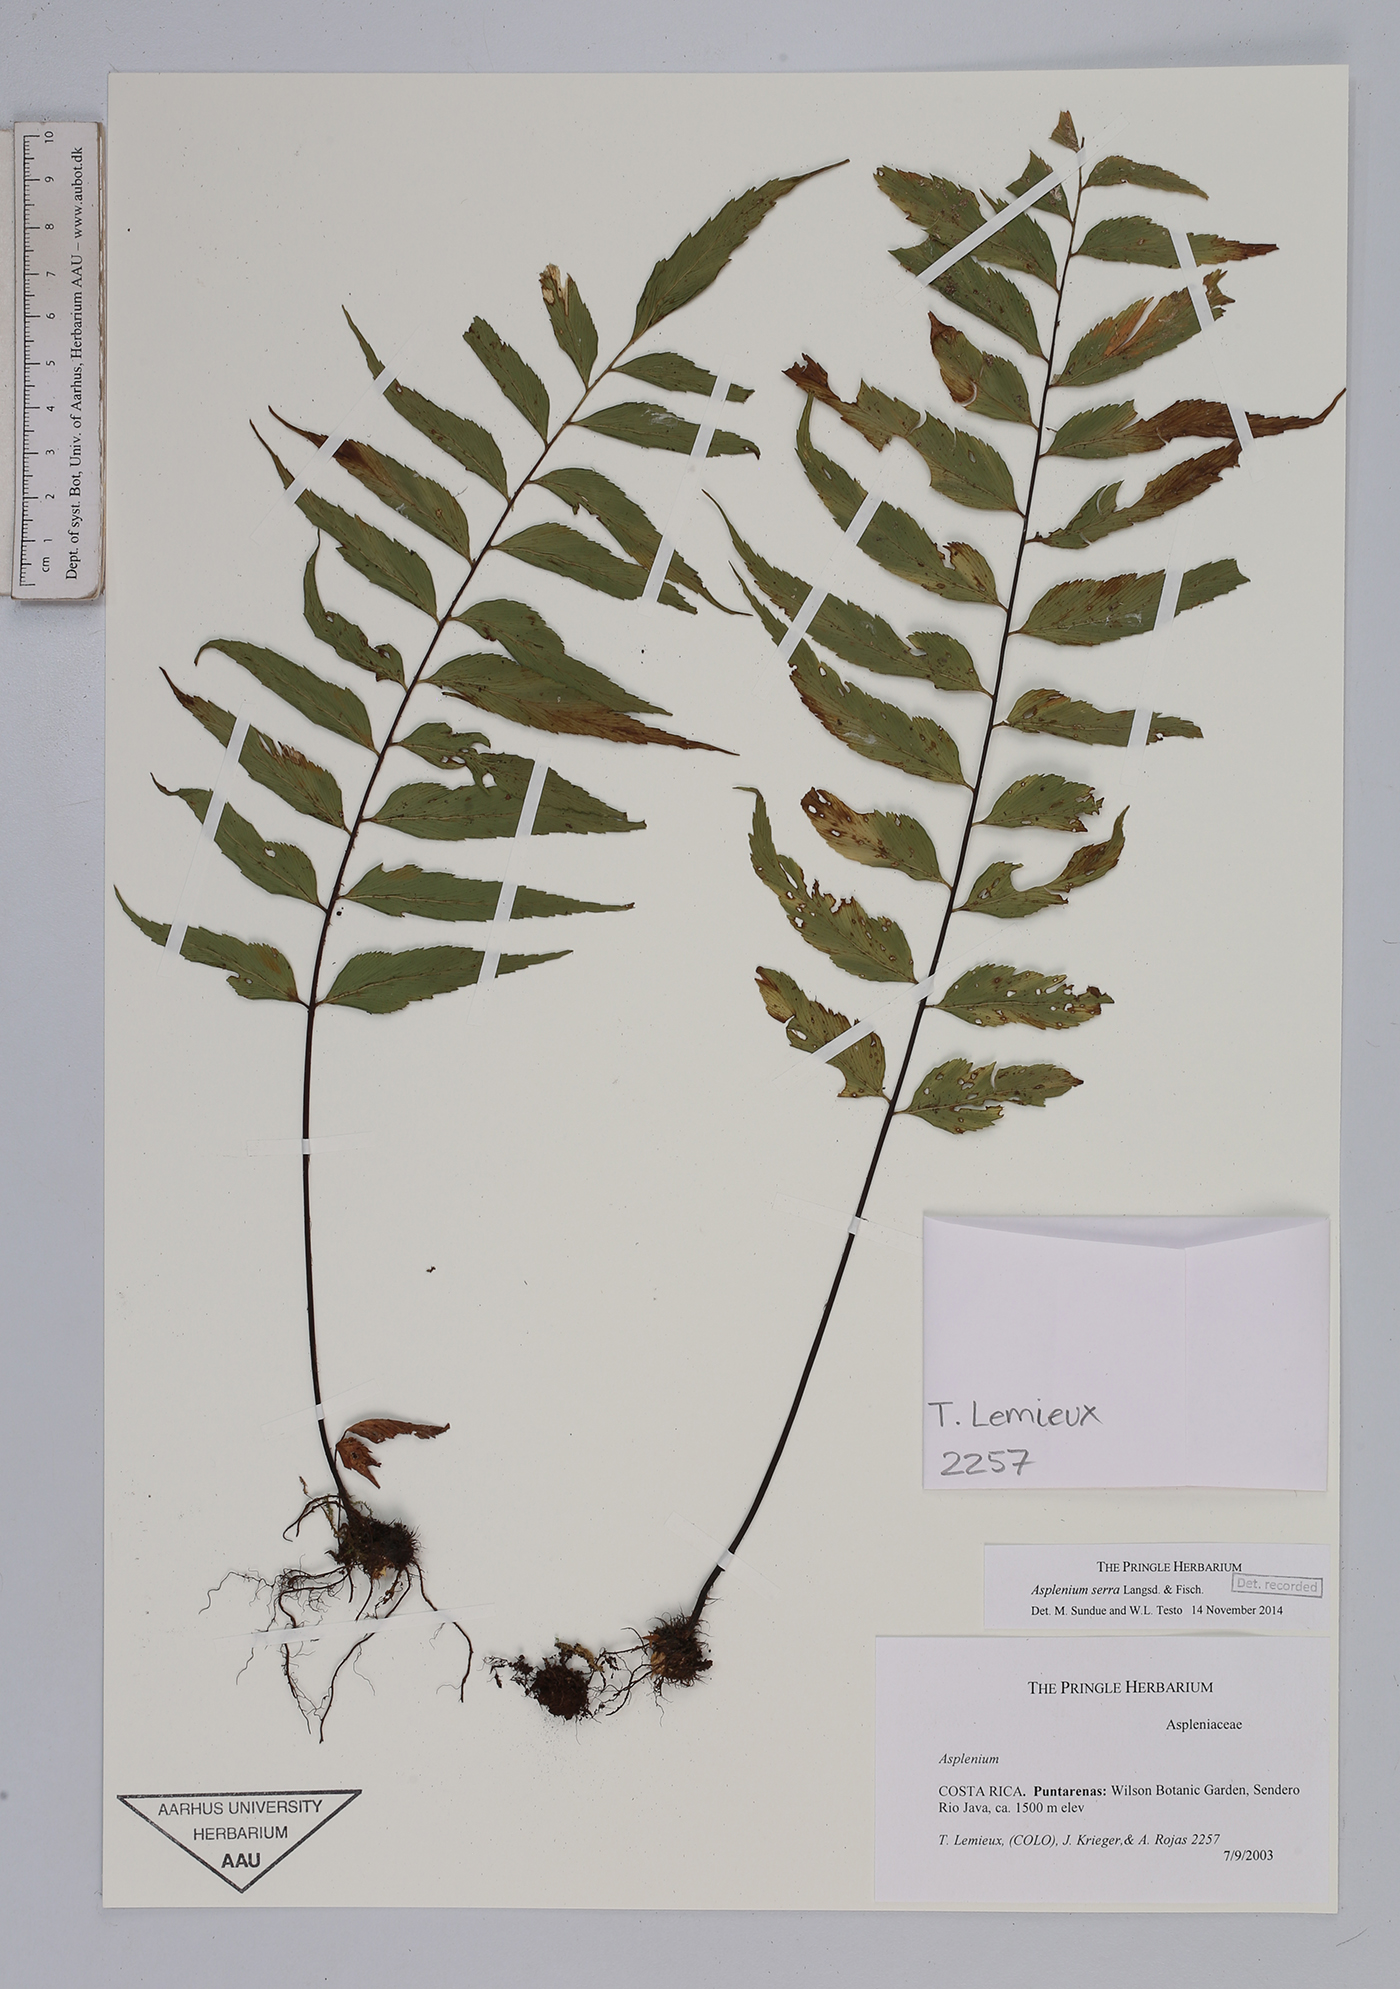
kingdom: Plantae
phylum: Tracheophyta
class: Polypodiopsida
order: Polypodiales
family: Aspleniaceae
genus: Asplenium
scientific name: Asplenium serra
